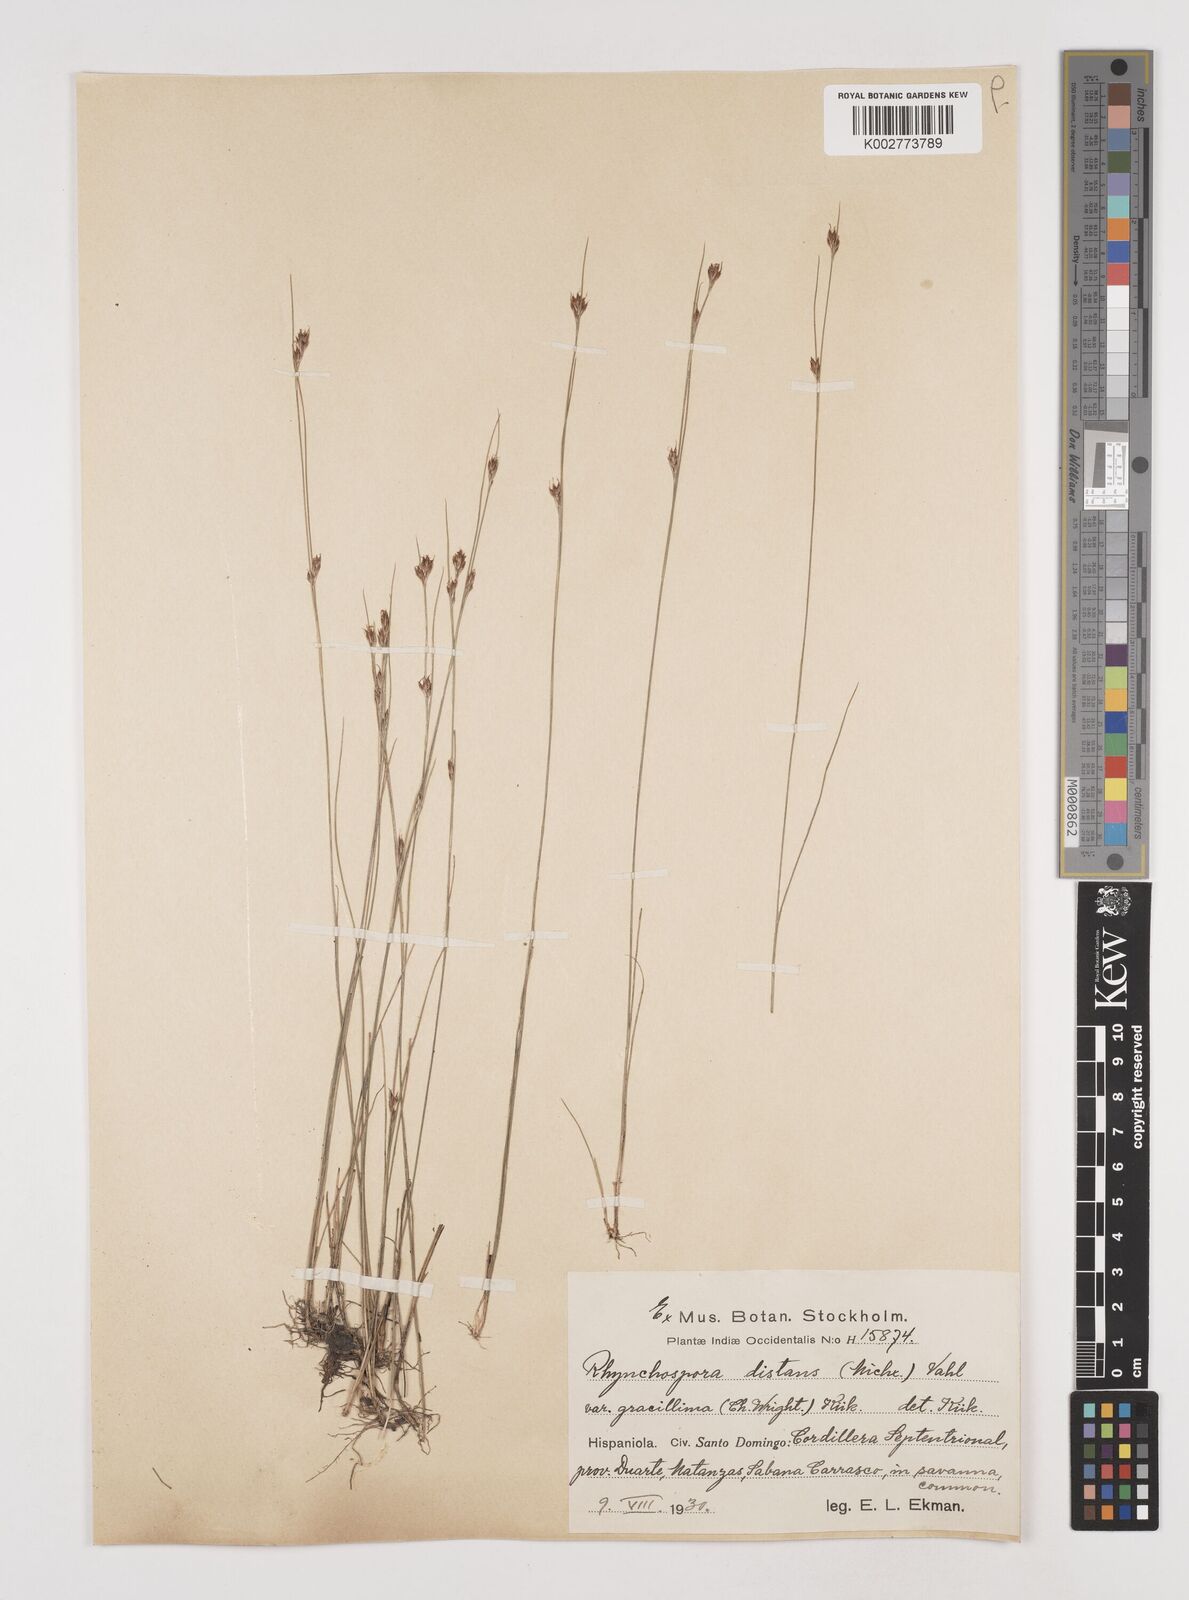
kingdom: Plantae
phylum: Tracheophyta
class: Liliopsida
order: Poales
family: Cyperaceae
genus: Rhynchospora
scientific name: Rhynchospora fascicularis
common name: Fascicled beak sedge
